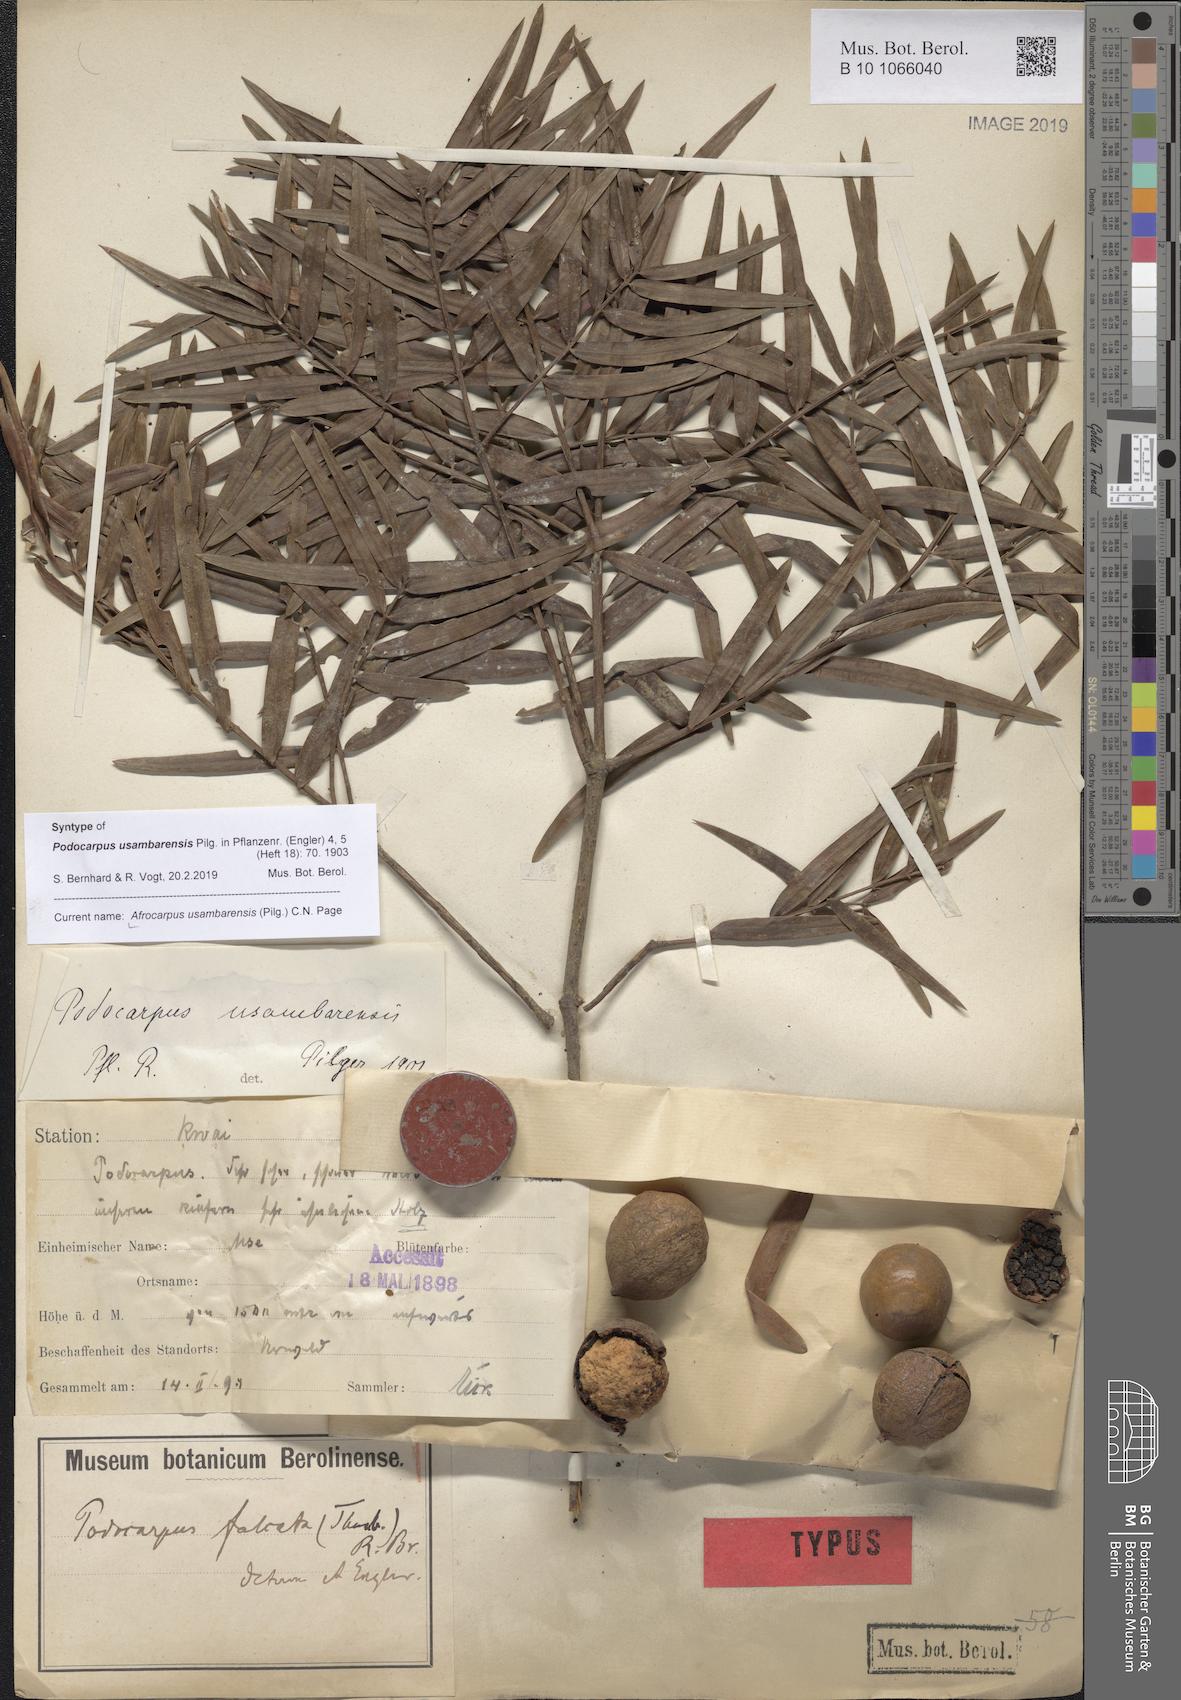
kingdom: Plantae
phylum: Tracheophyta
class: Pinopsida
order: Pinales
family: Podocarpaceae
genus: Afrocarpus
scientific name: Afrocarpus usambarensis
